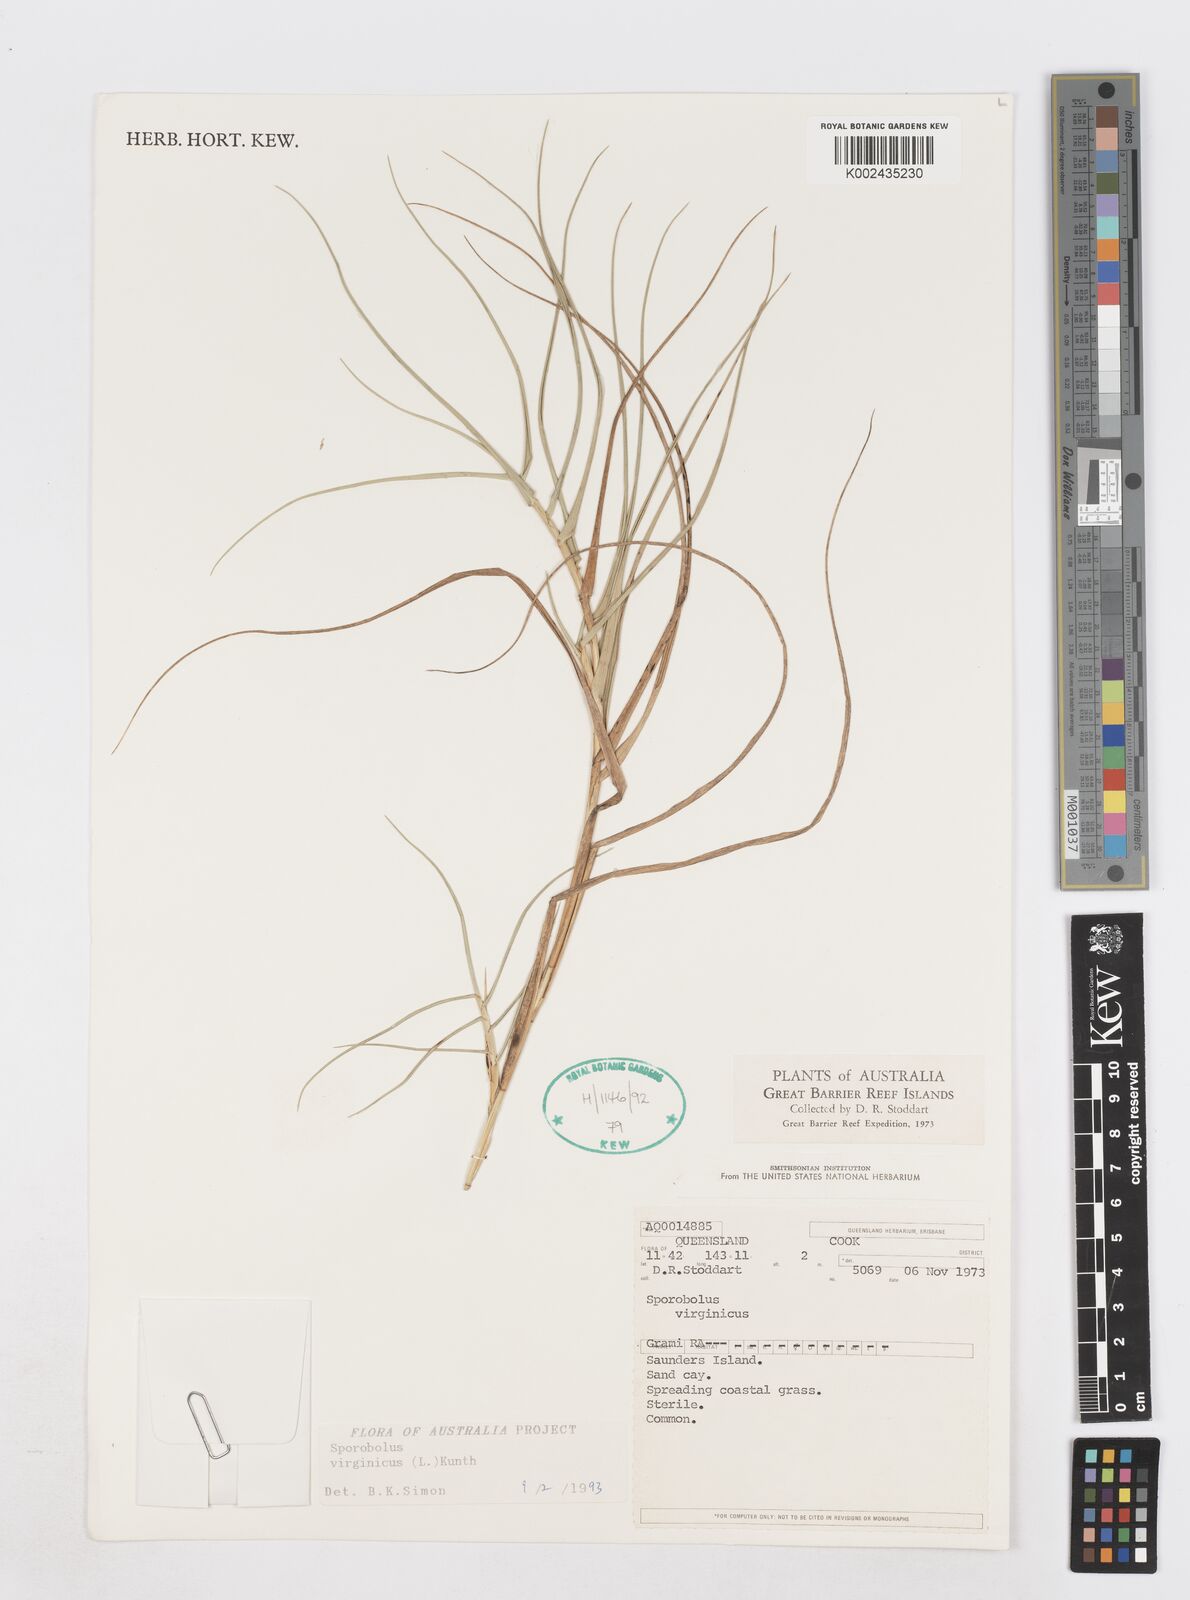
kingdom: Plantae
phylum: Tracheophyta
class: Liliopsida
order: Poales
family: Poaceae
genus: Sporobolus
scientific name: Sporobolus virginicus
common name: Beach dropseed
